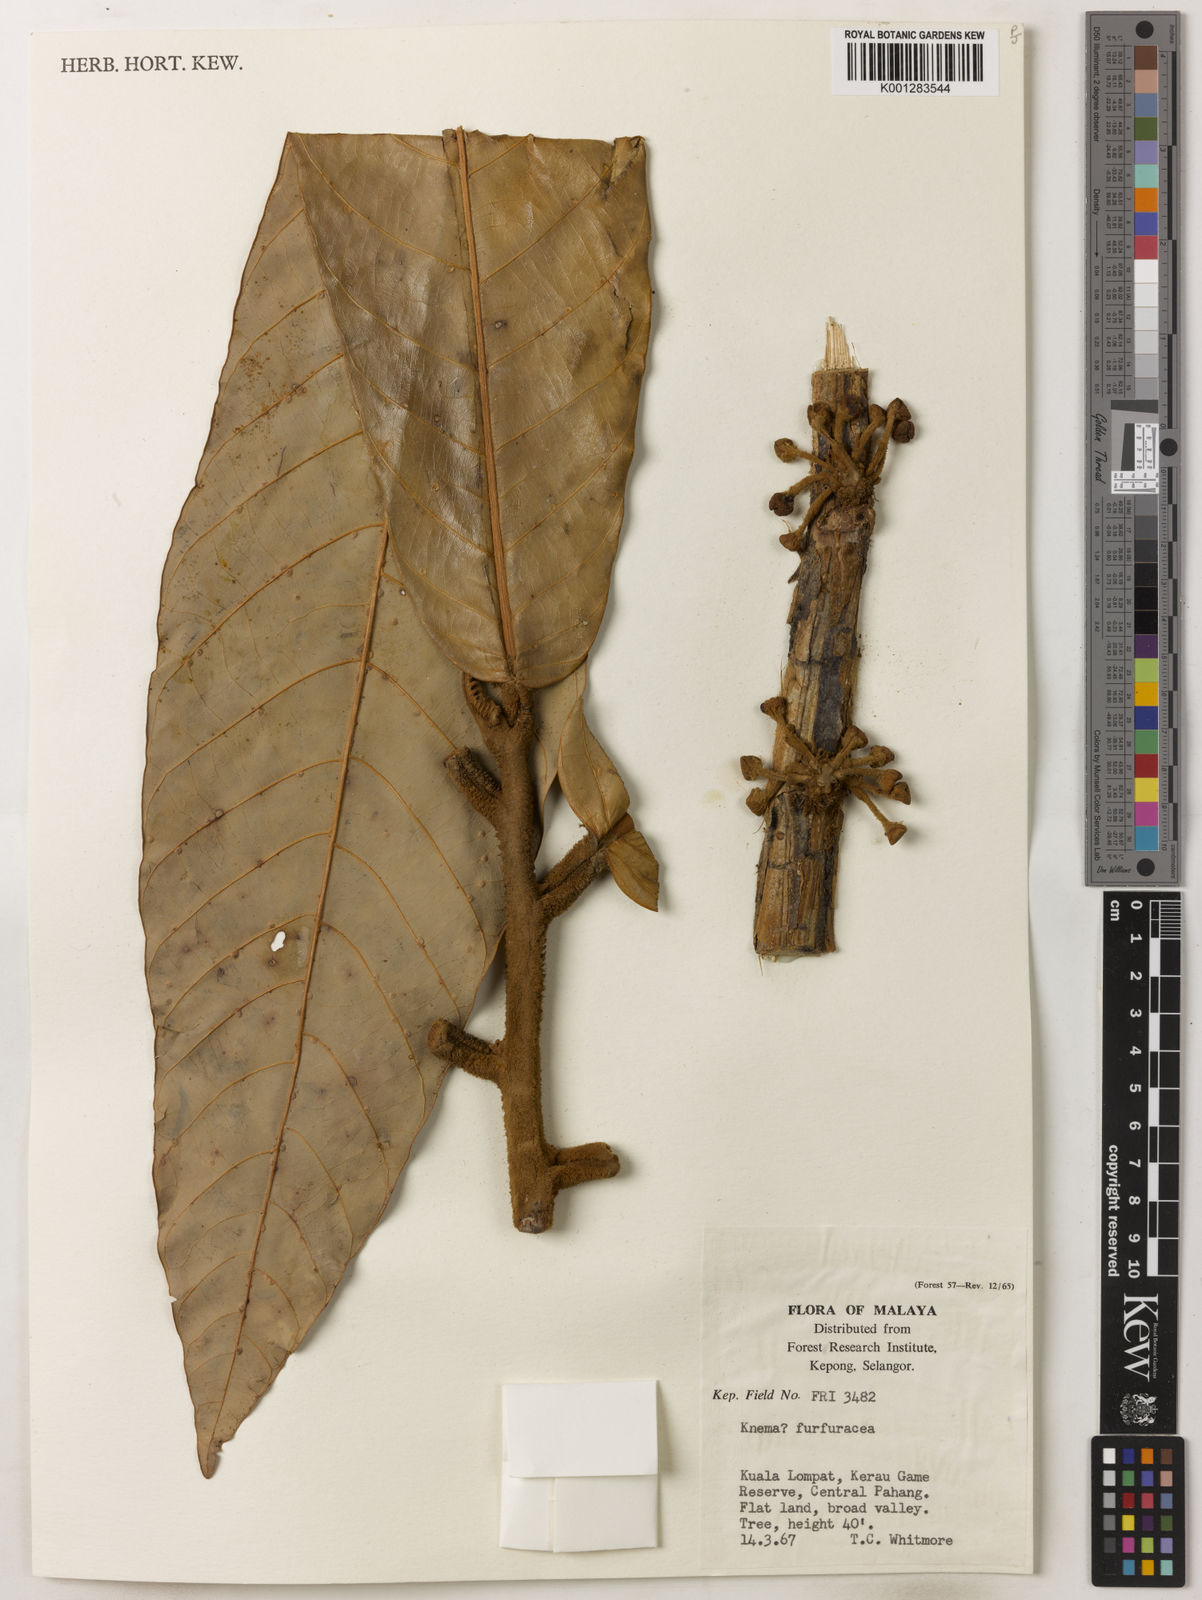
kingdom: Plantae
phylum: Tracheophyta
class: Magnoliopsida
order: Magnoliales
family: Myristicaceae
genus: Knema
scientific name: Knema furfuracea
